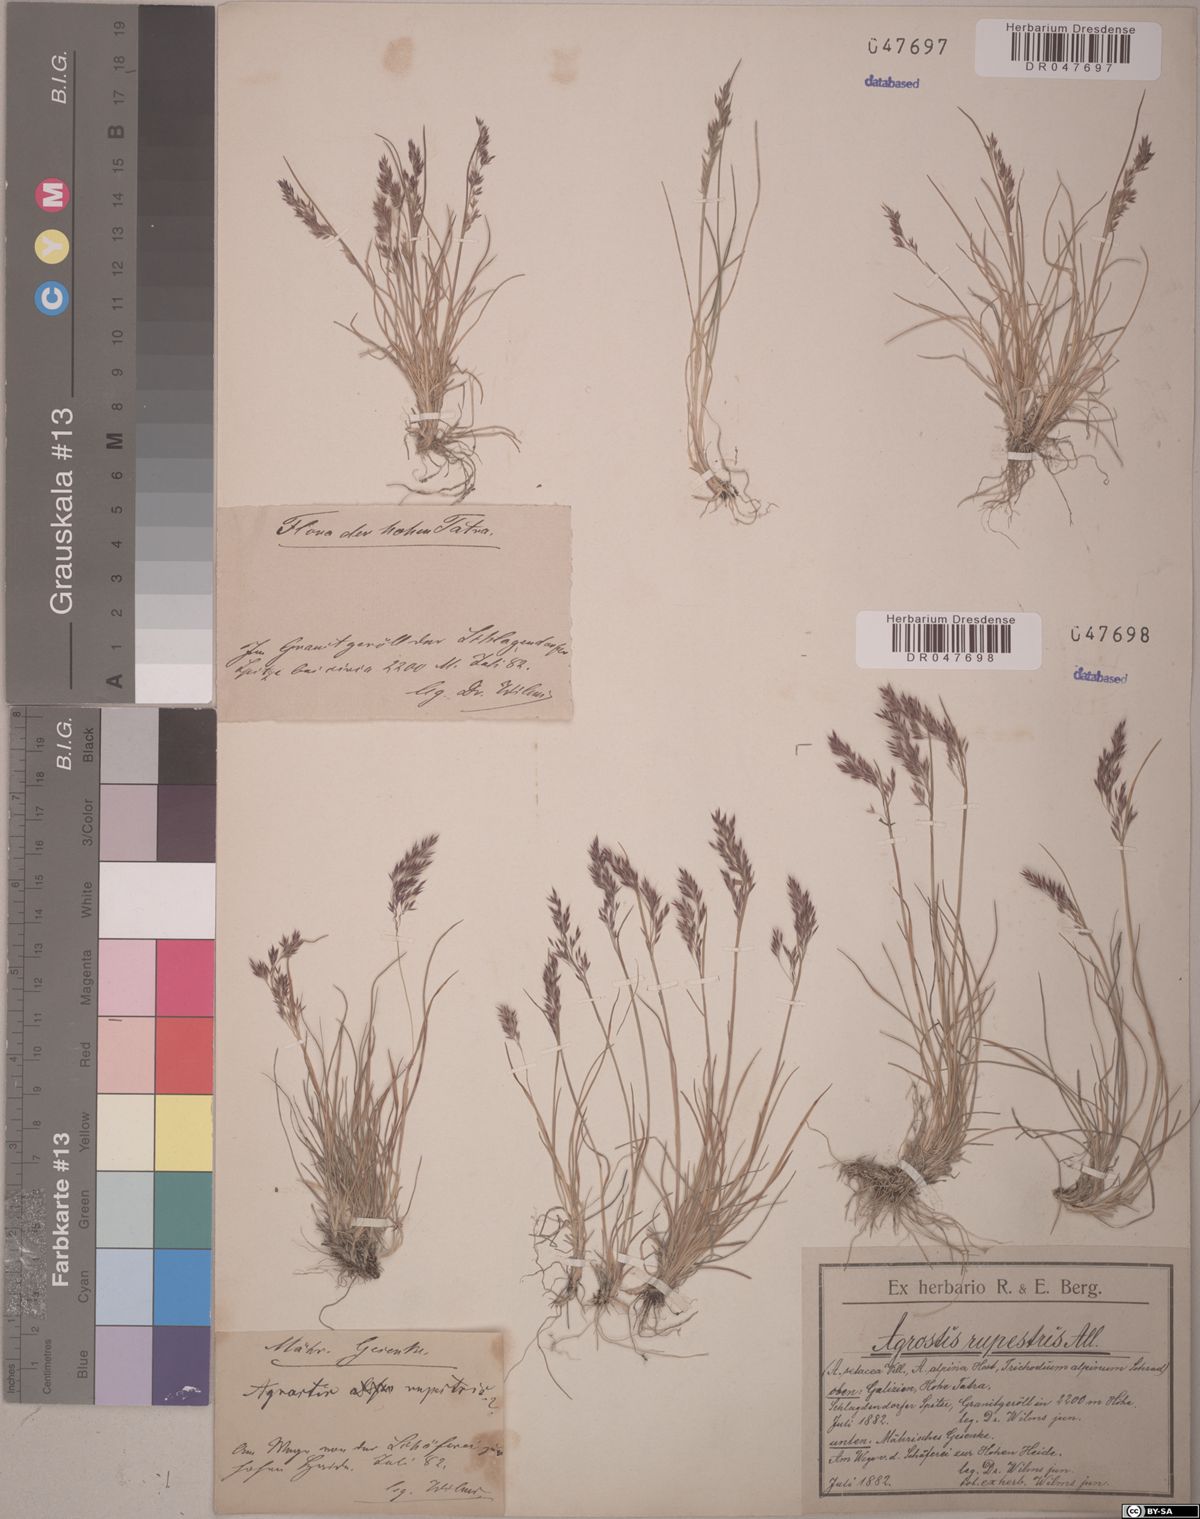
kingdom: Plantae
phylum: Tracheophyta
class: Liliopsida
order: Poales
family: Poaceae
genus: Agrostis
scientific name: Agrostis rupestris
